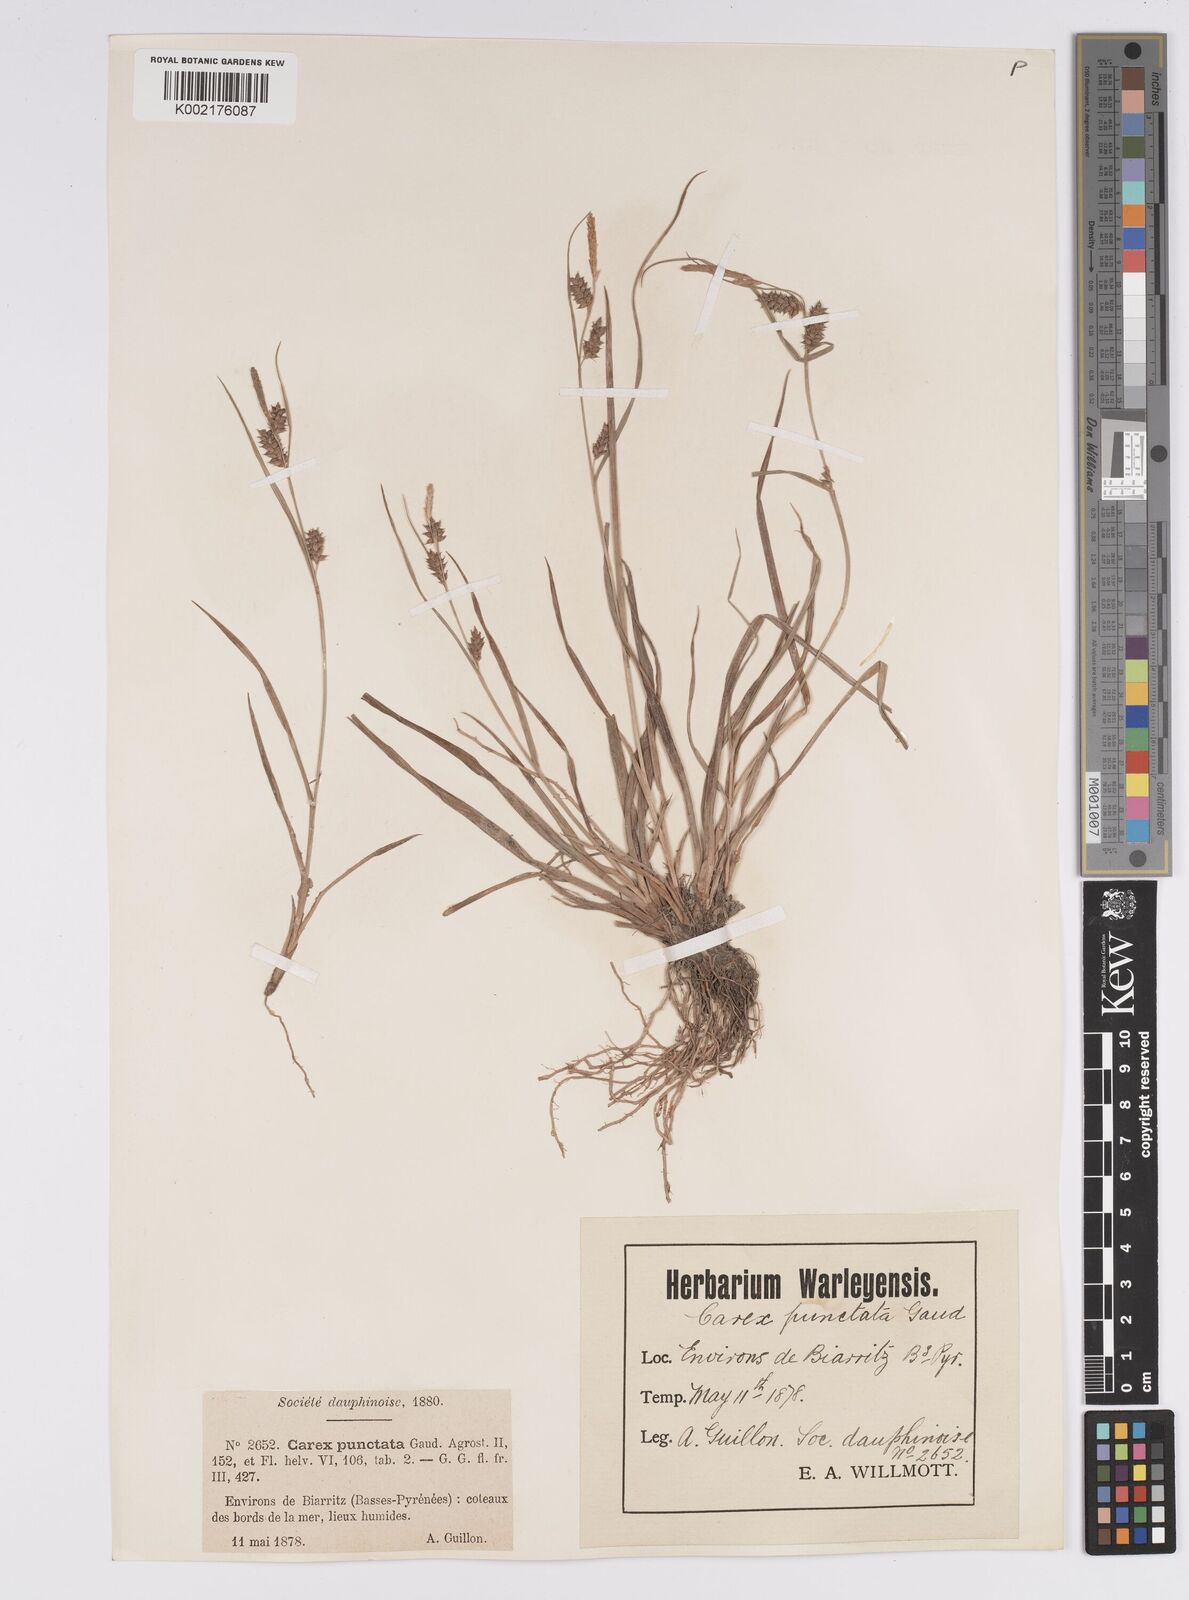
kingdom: Plantae
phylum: Tracheophyta
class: Liliopsida
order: Poales
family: Cyperaceae
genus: Carex
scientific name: Carex punctata
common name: Dotted sedge
